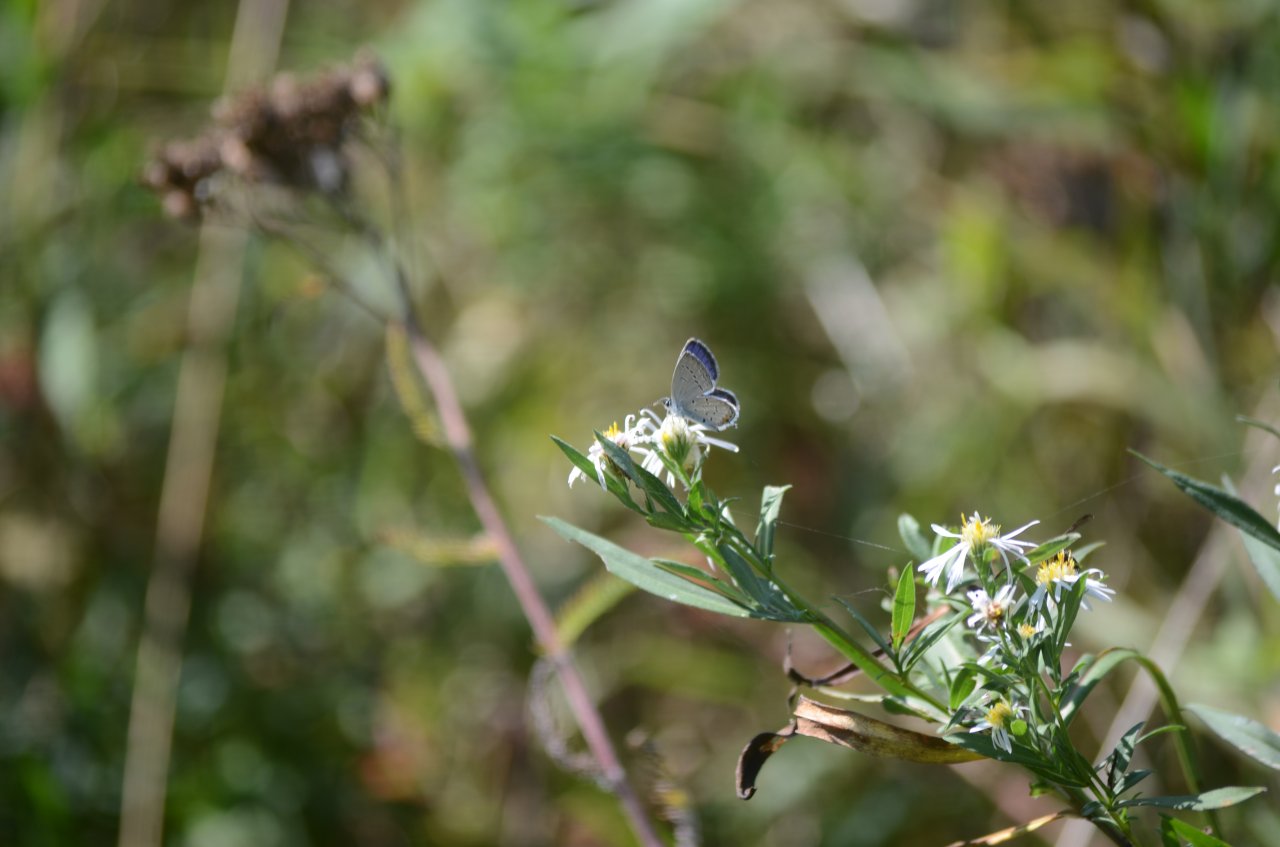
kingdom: Animalia
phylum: Arthropoda
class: Insecta
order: Lepidoptera
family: Lycaenidae
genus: Elkalyce
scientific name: Elkalyce comyntas
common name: Eastern Tailed-Blue
